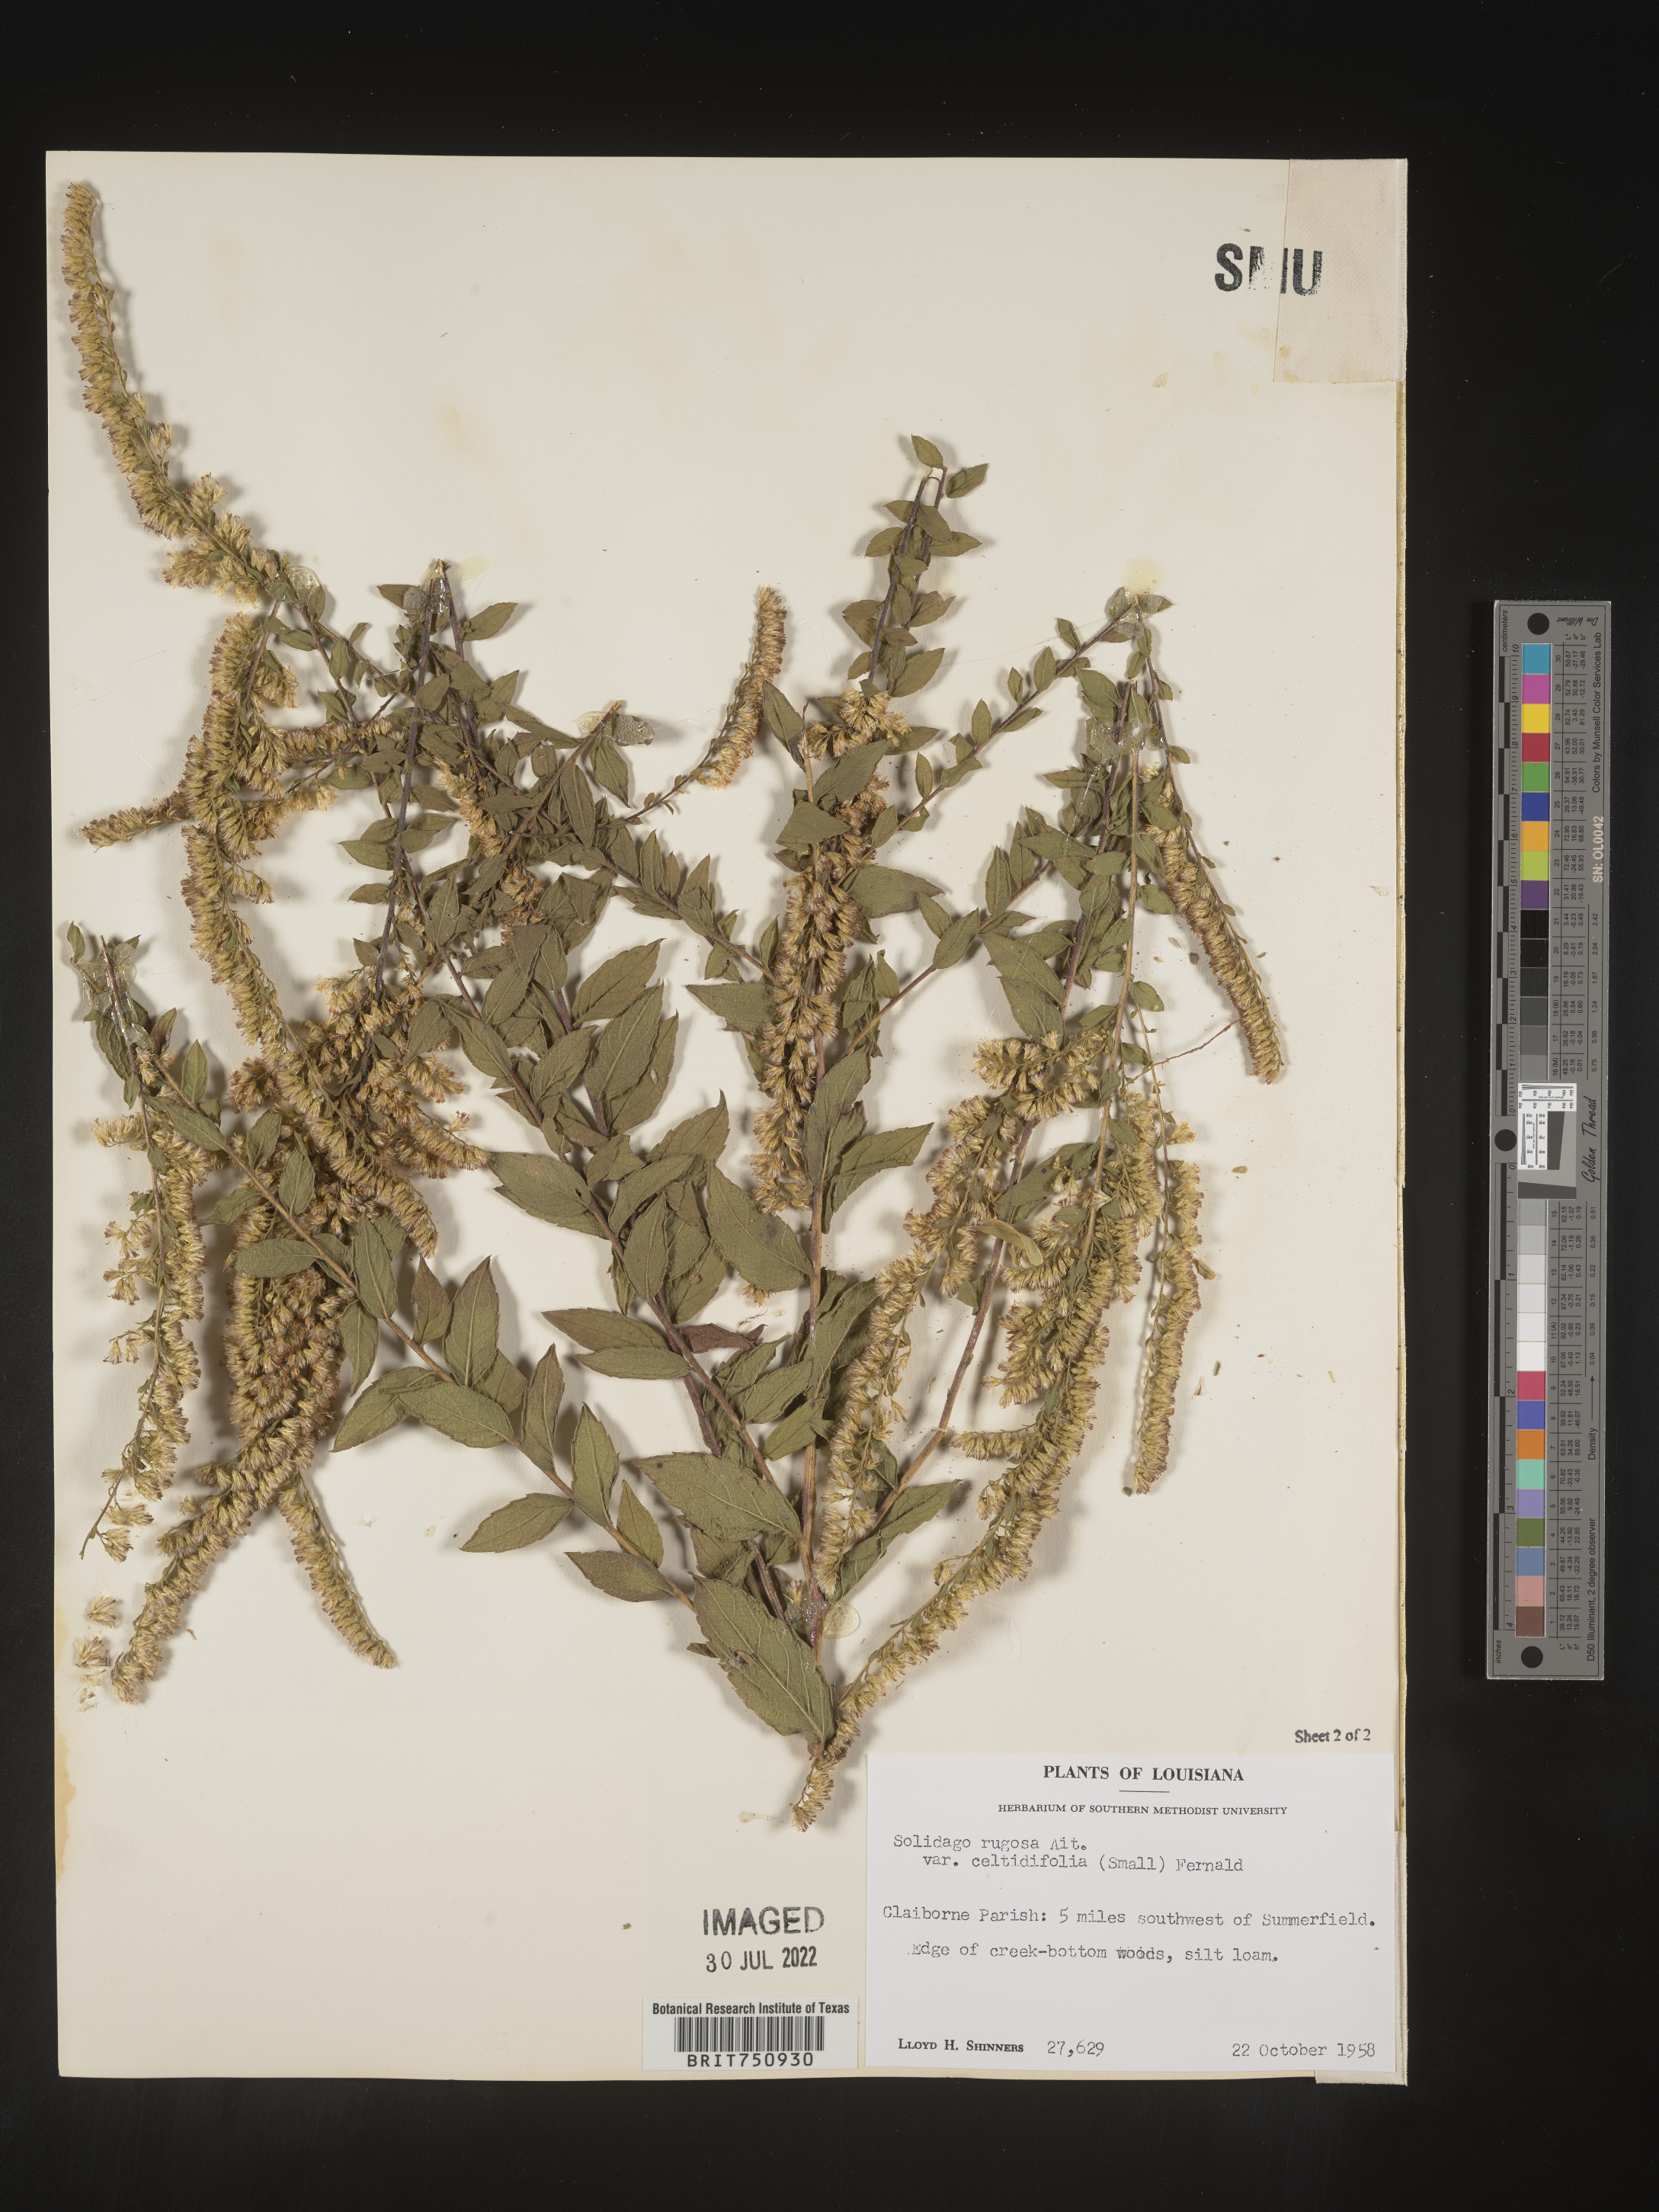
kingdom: Plantae
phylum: Tracheophyta
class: Magnoliopsida
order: Asterales
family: Asteraceae
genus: Solidago
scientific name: Solidago rugosa
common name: Rough-stemmed goldenrod
